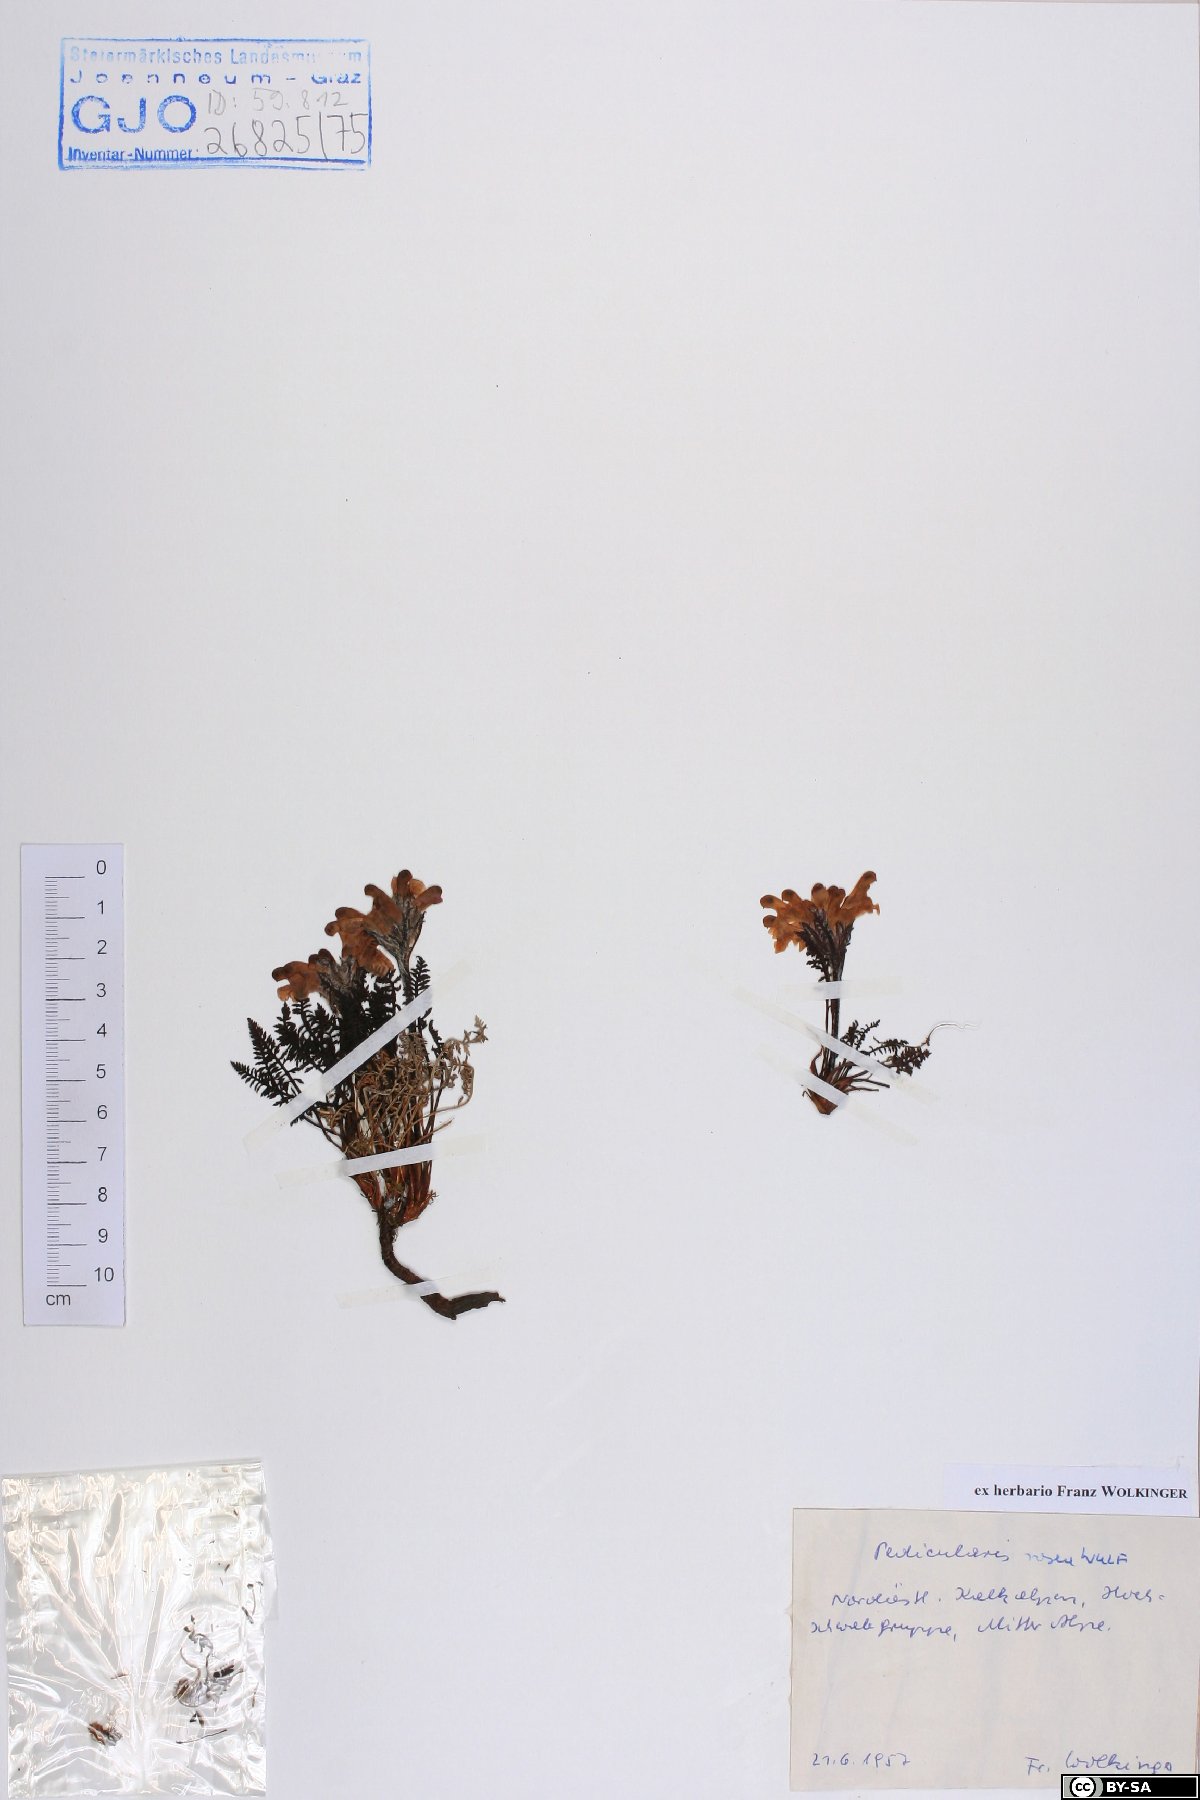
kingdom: Plantae
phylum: Tracheophyta
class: Magnoliopsida
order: Lamiales
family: Orobanchaceae
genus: Pedicularis
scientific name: Pedicularis rosea
